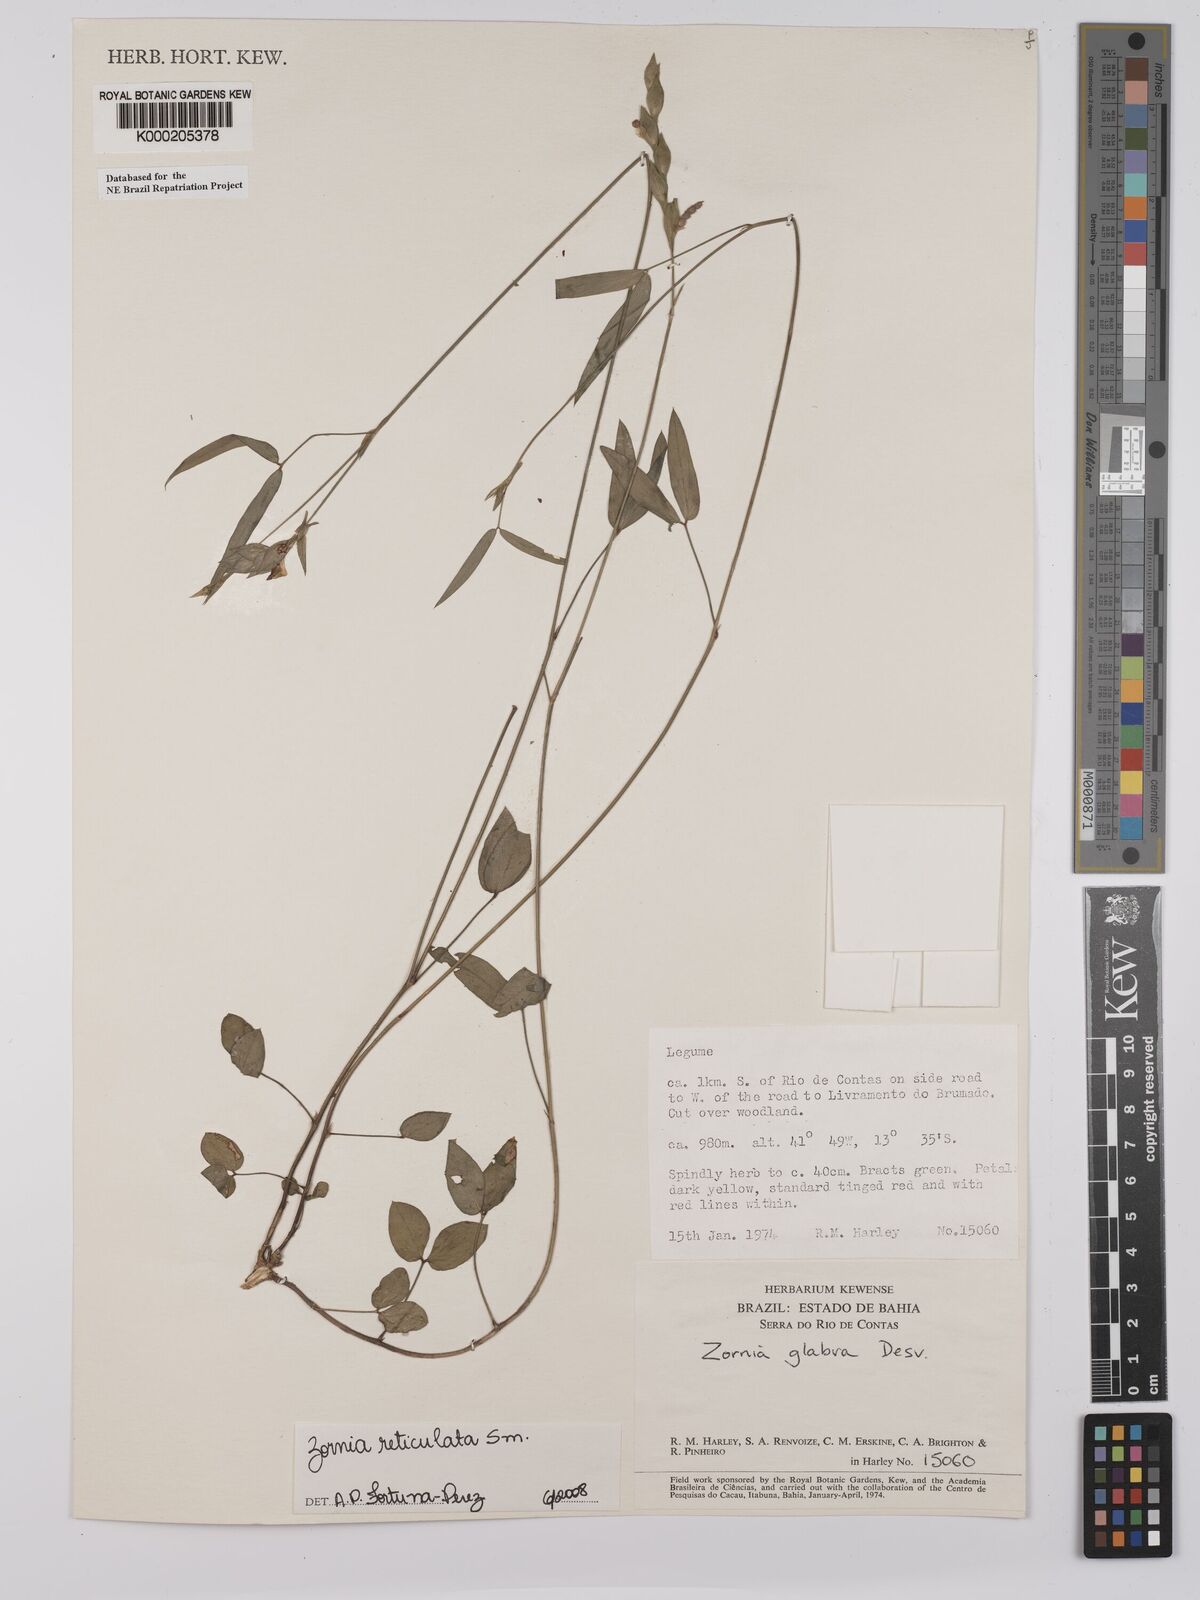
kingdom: Plantae
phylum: Tracheophyta
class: Magnoliopsida
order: Fabales
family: Fabaceae
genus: Zornia
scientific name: Zornia reticulata
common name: Reticulate viperina
